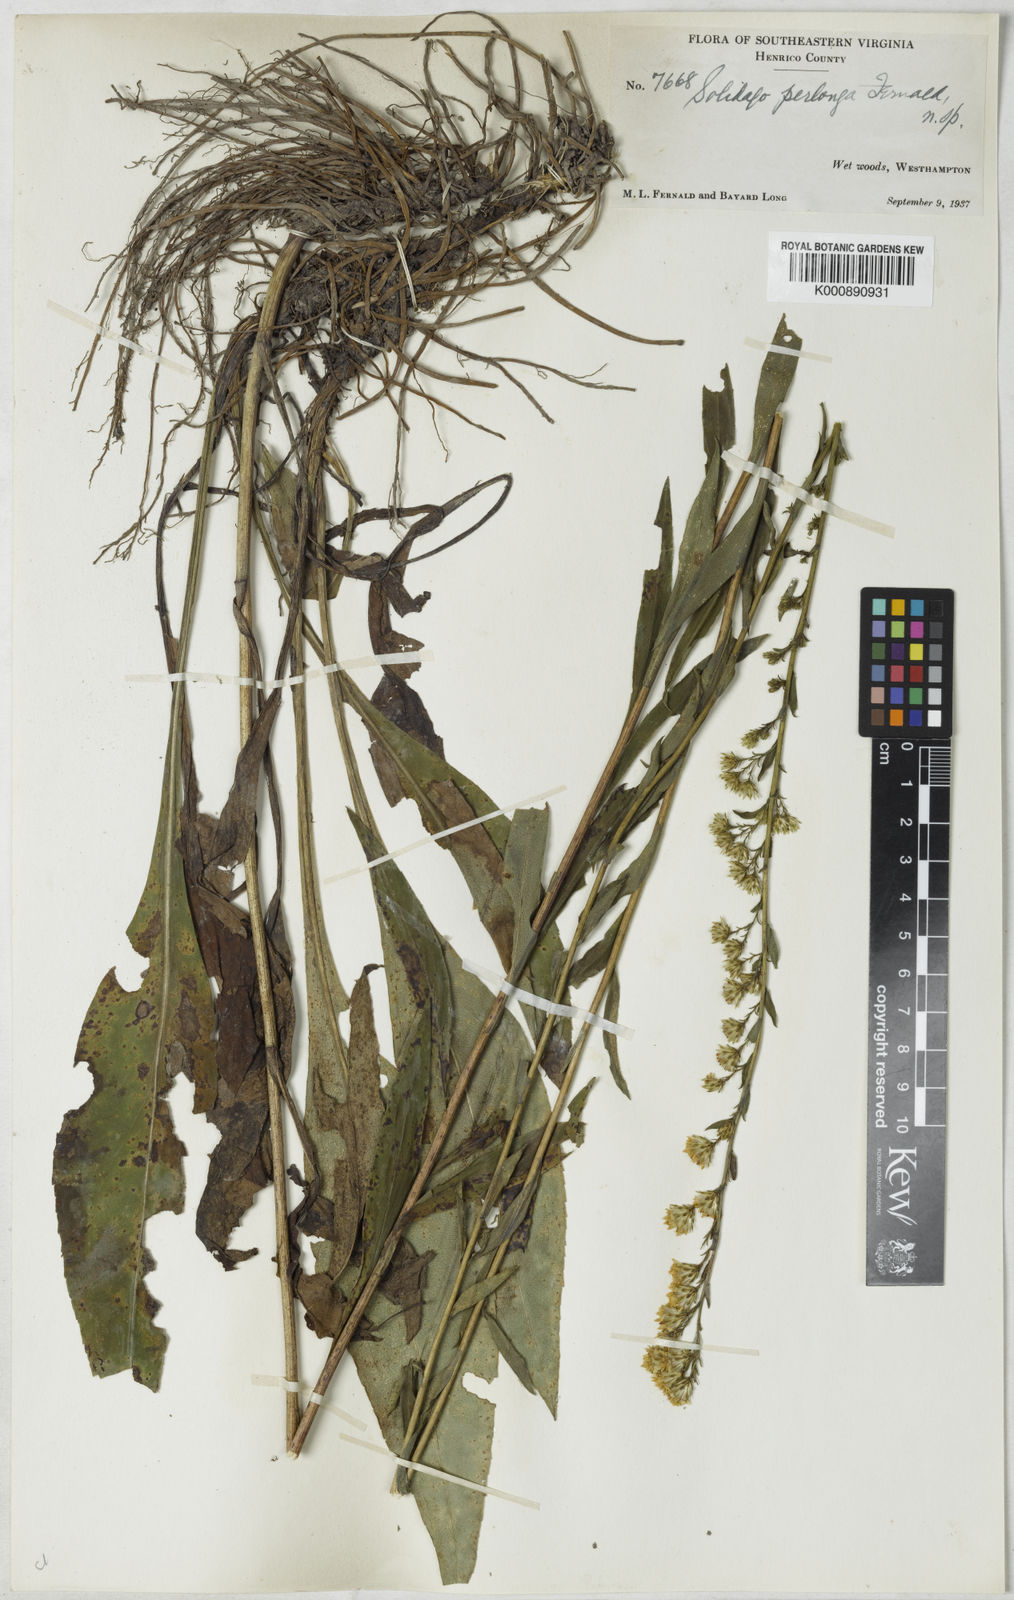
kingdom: Plantae
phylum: Tracheophyta
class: Magnoliopsida
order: Asterales
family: Asteraceae
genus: Solidago
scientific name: Solidago stricta
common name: Pine barren bog goldenrod
